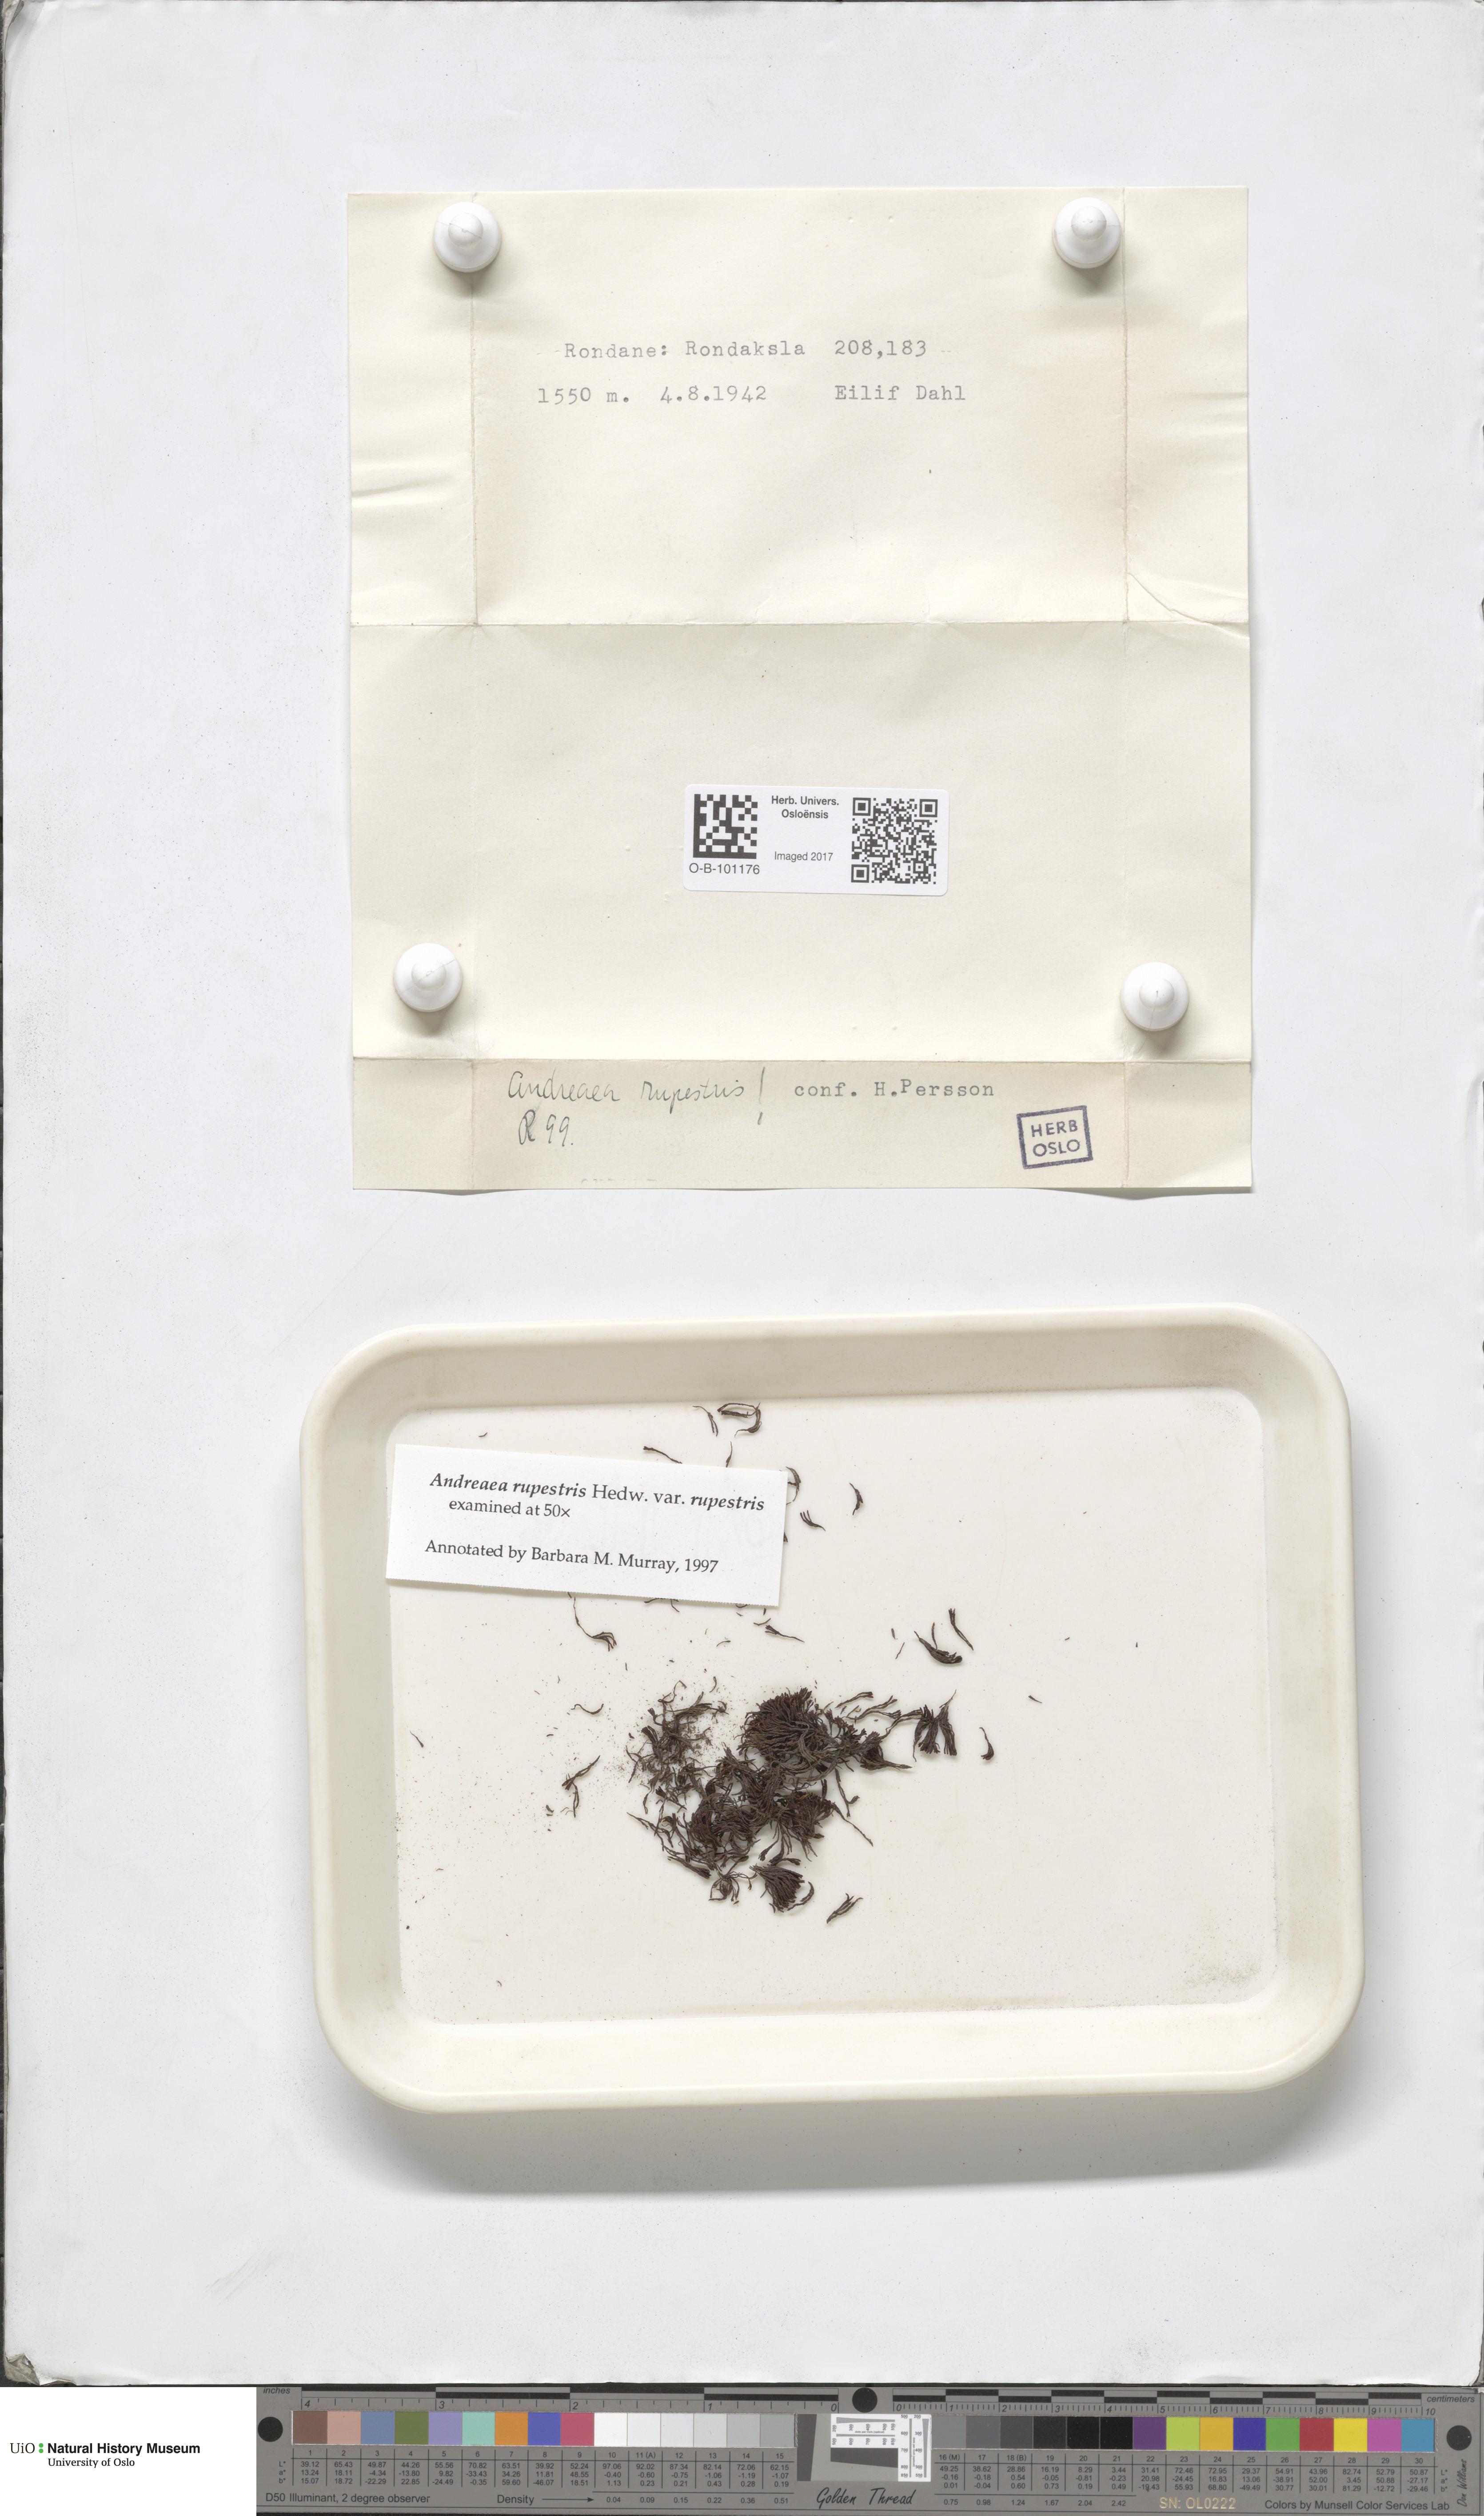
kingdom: Plantae
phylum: Bryophyta
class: Andreaeopsida
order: Andreaeales
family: Andreaeaceae
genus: Andreaea
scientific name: Andreaea rupestris
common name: Black rock moss
